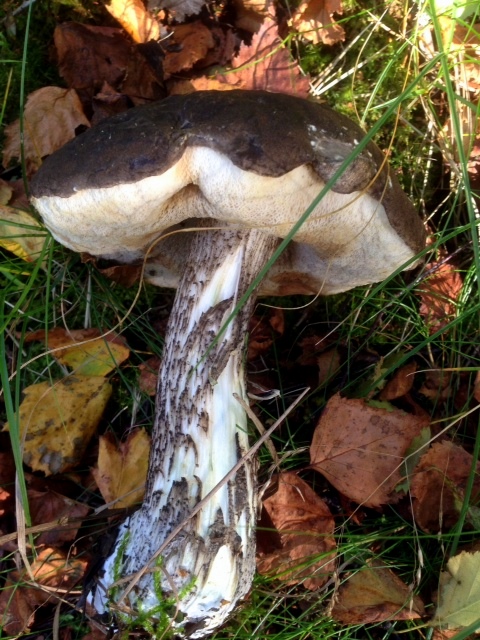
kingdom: Fungi
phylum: Basidiomycota
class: Agaricomycetes
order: Boletales
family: Boletaceae
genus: Leccinum
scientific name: Leccinum variicolor
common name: flammet skælrørhat
